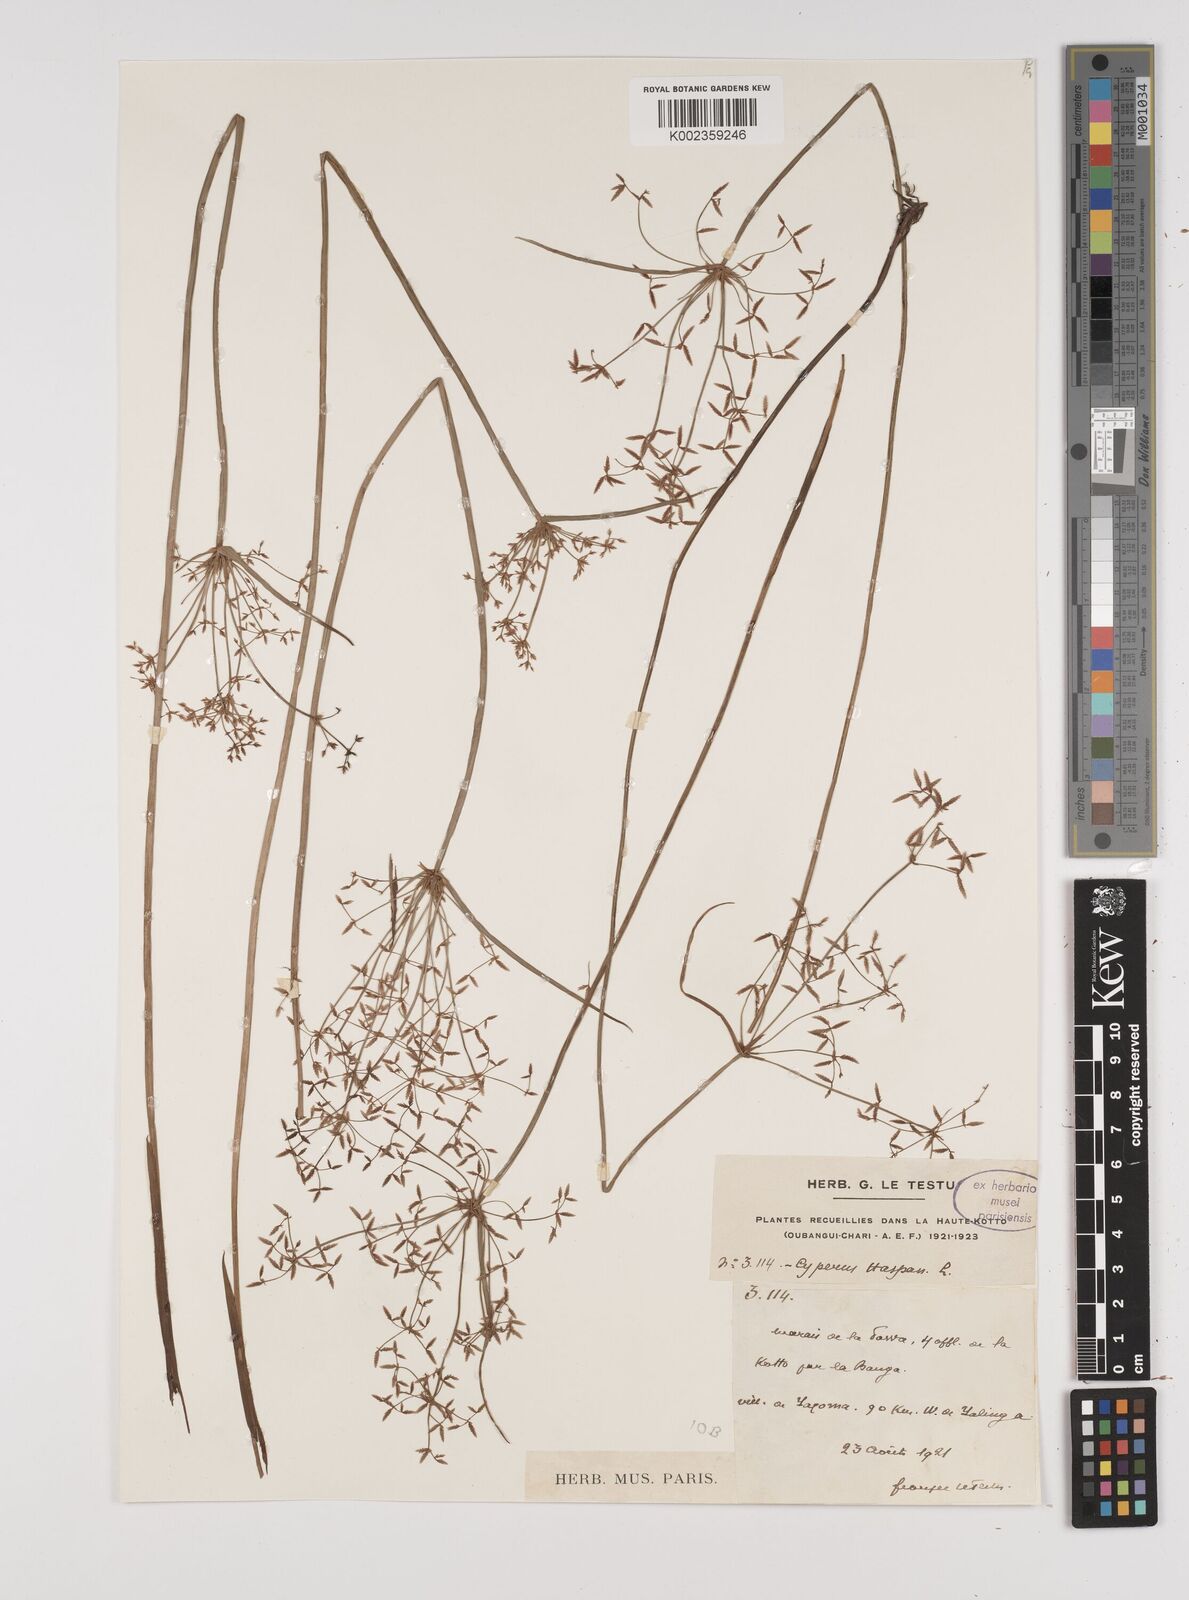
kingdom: Plantae
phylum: Tracheophyta
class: Liliopsida
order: Poales
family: Cyperaceae
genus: Cyperus
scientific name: Cyperus haspan
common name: Haspan flatsedge
